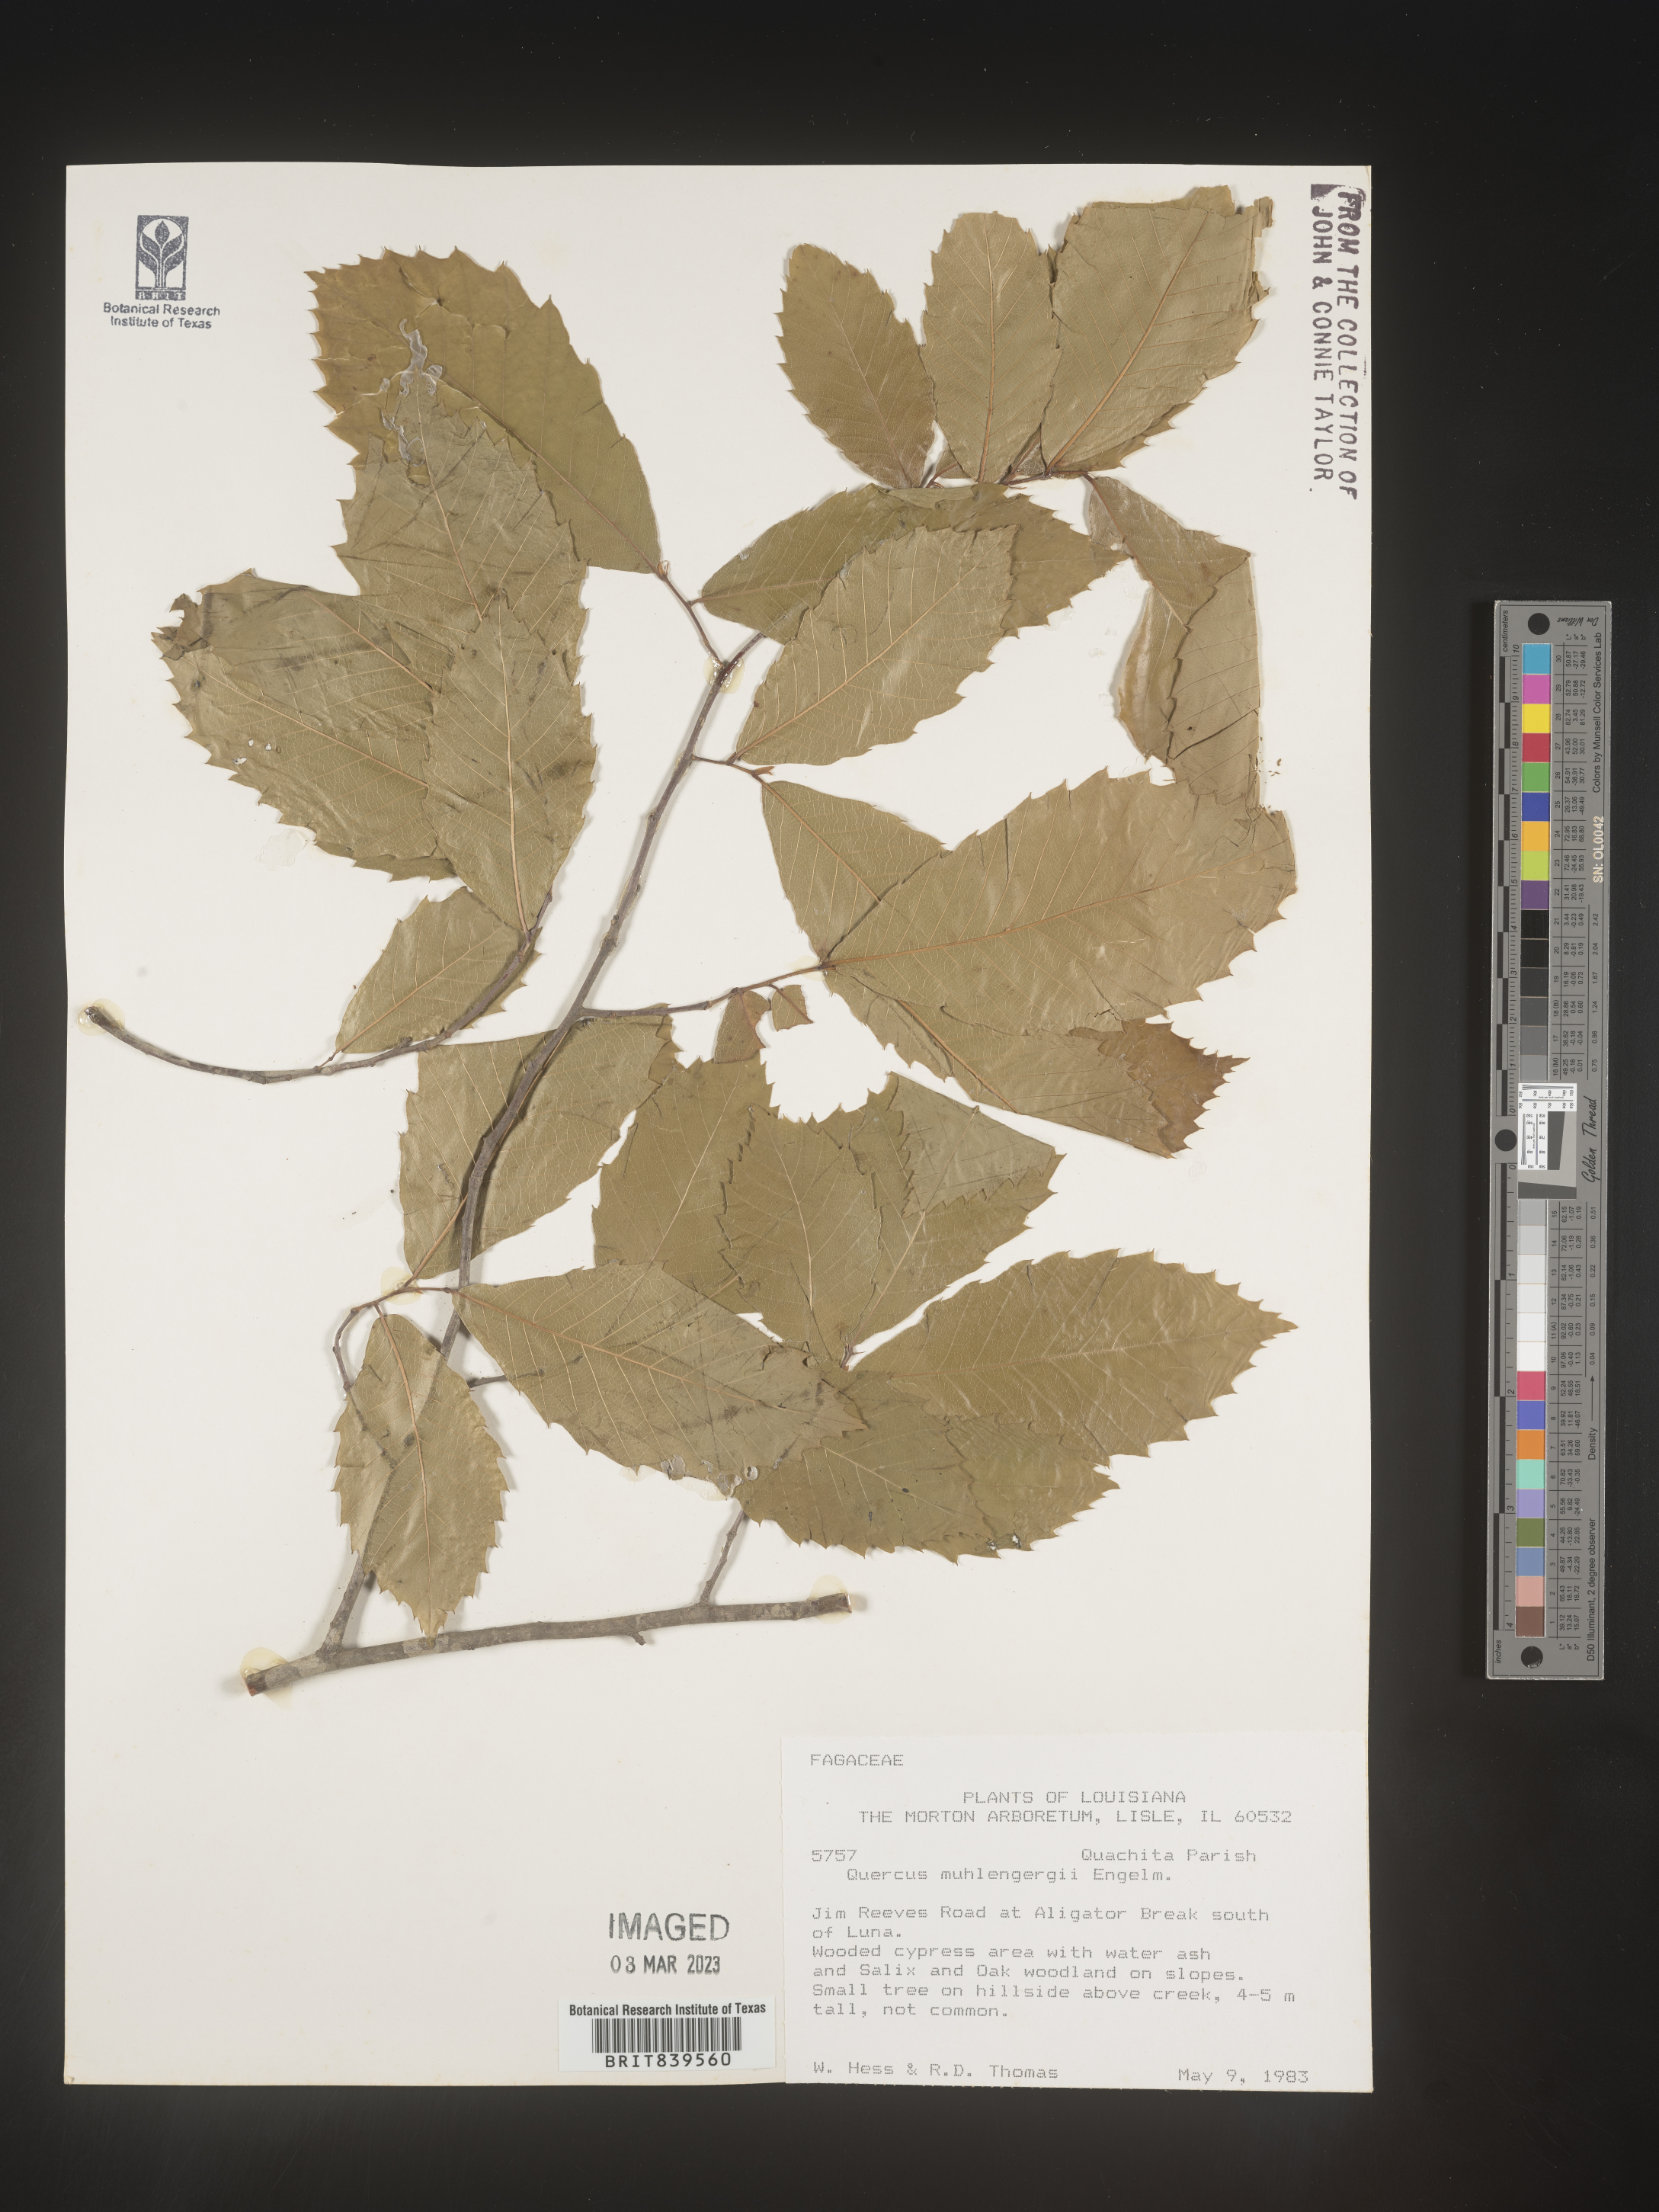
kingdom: Plantae
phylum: Tracheophyta
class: Magnoliopsida
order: Fagales
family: Fagaceae
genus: Quercus
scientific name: Quercus muehlenbergii
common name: Chinkapin oak
